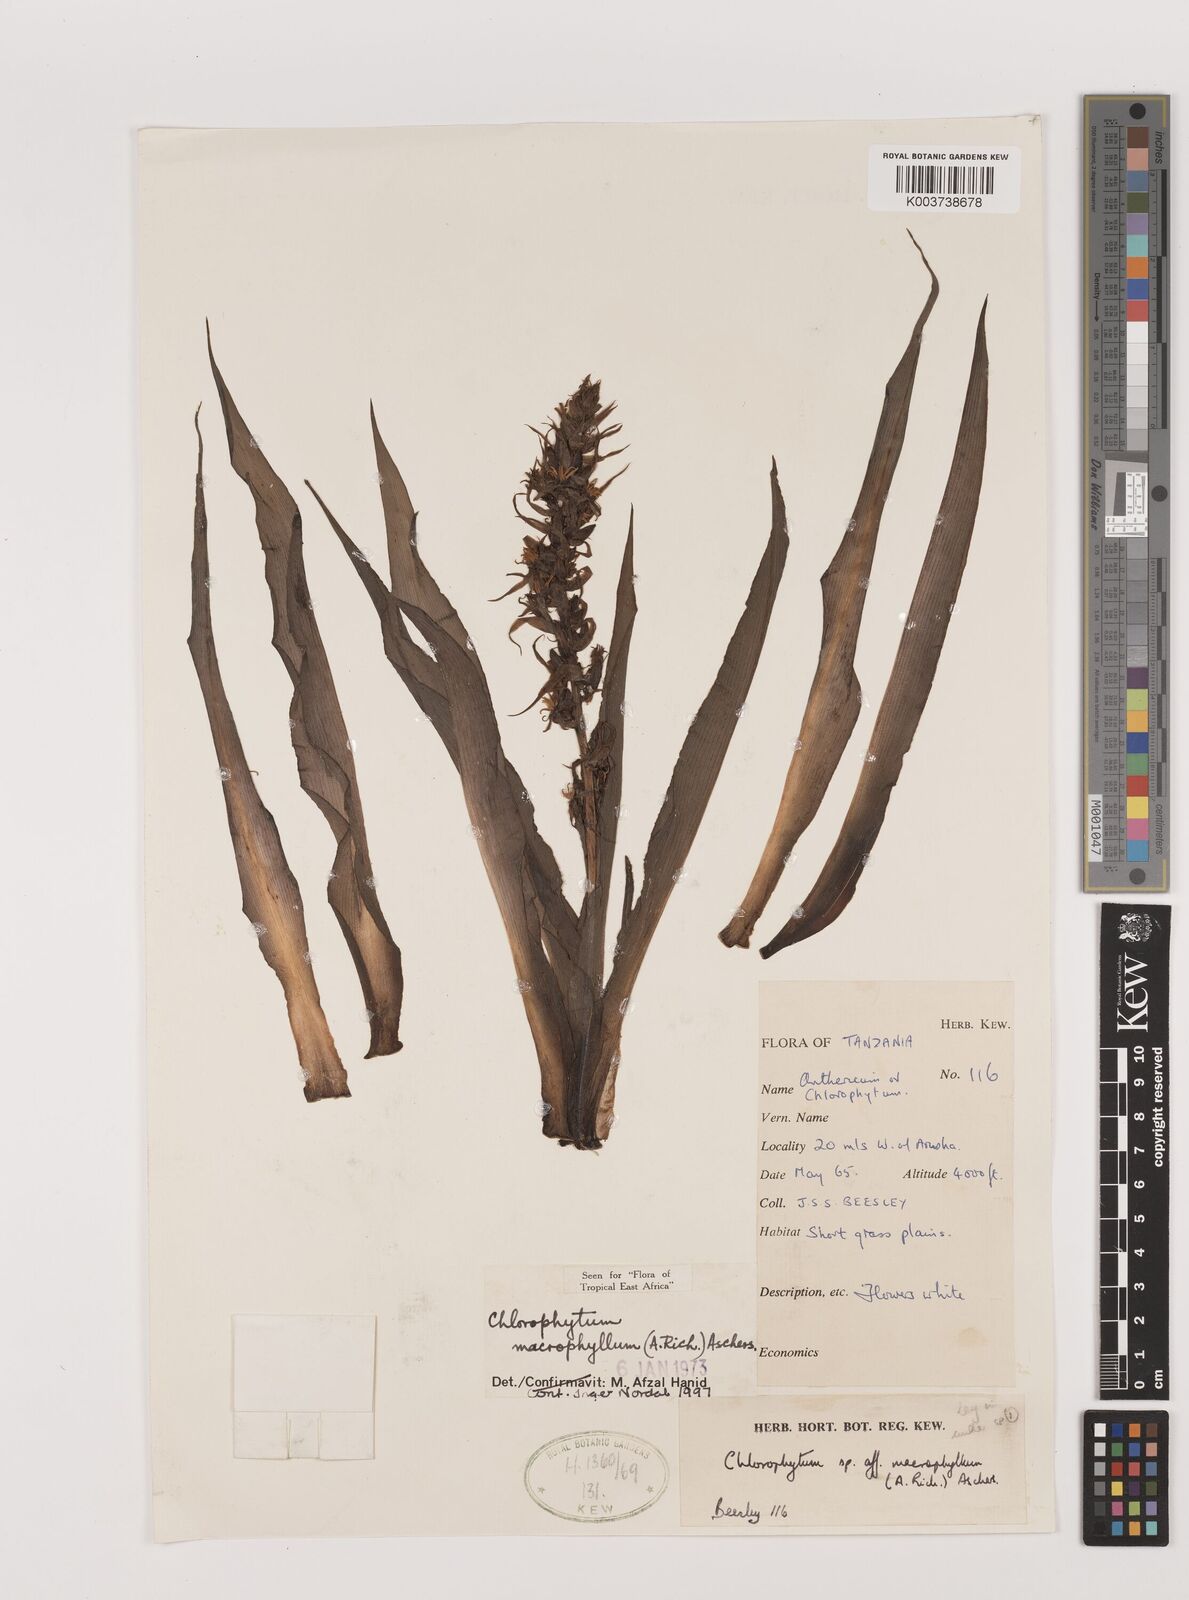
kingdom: Plantae
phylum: Tracheophyta
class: Liliopsida
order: Asparagales
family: Asparagaceae
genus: Chlorophytum
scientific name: Chlorophytum macrophyllum
